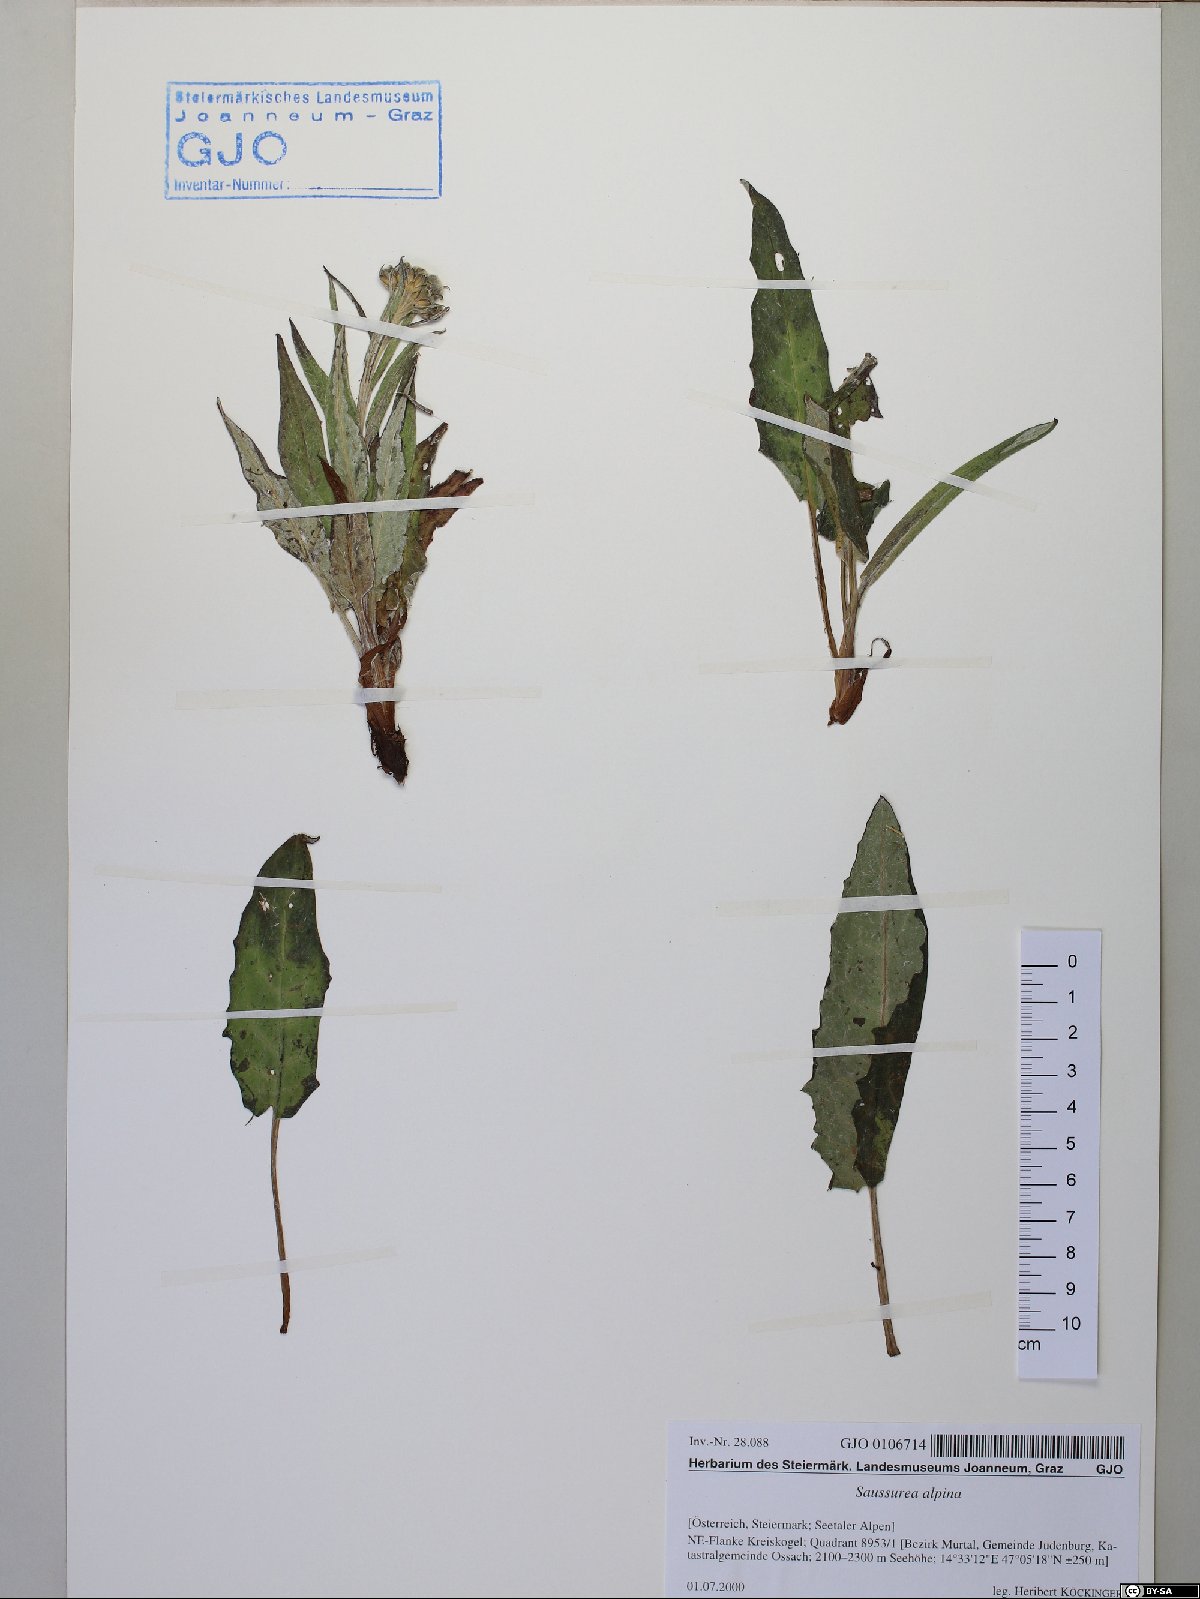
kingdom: Plantae
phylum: Tracheophyta
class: Magnoliopsida
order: Asterales
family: Asteraceae
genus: Saussurea
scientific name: Saussurea alpina
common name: Alpine saw-wort
